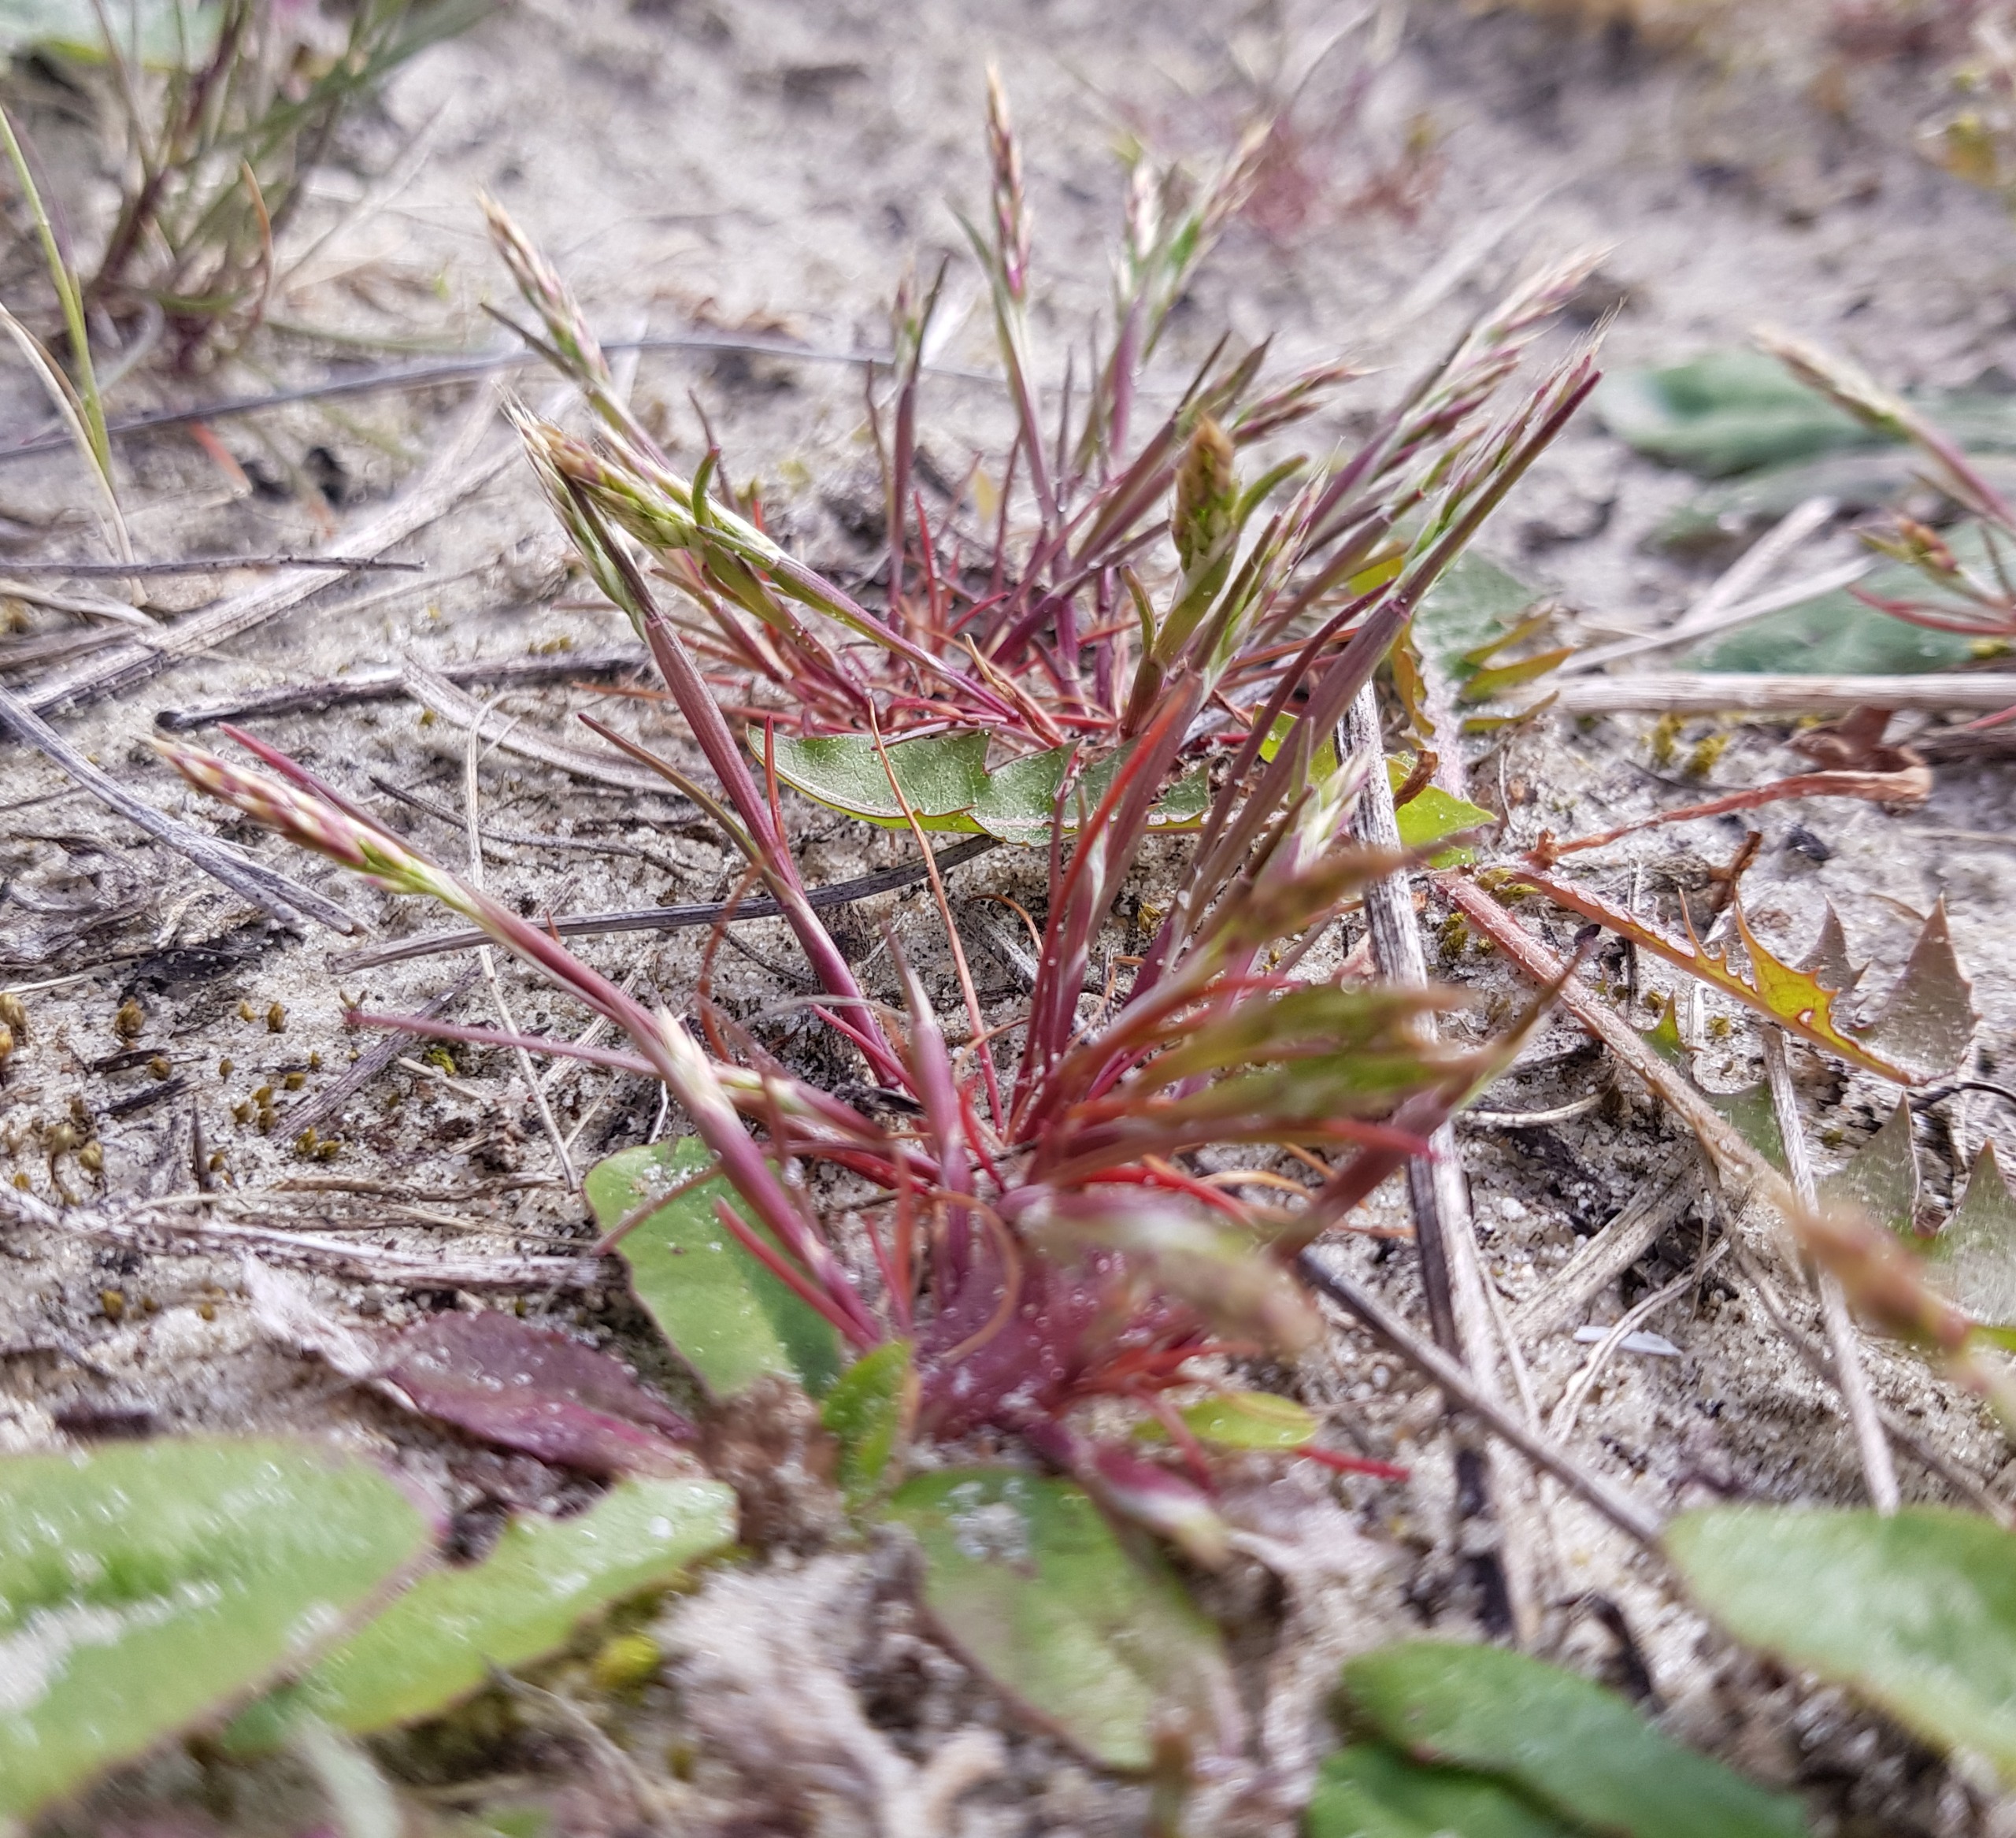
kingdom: Plantae
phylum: Tracheophyta
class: Liliopsida
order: Poales
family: Poaceae
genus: Aira
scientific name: Aira praecox
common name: Tidlig dværgbunke
